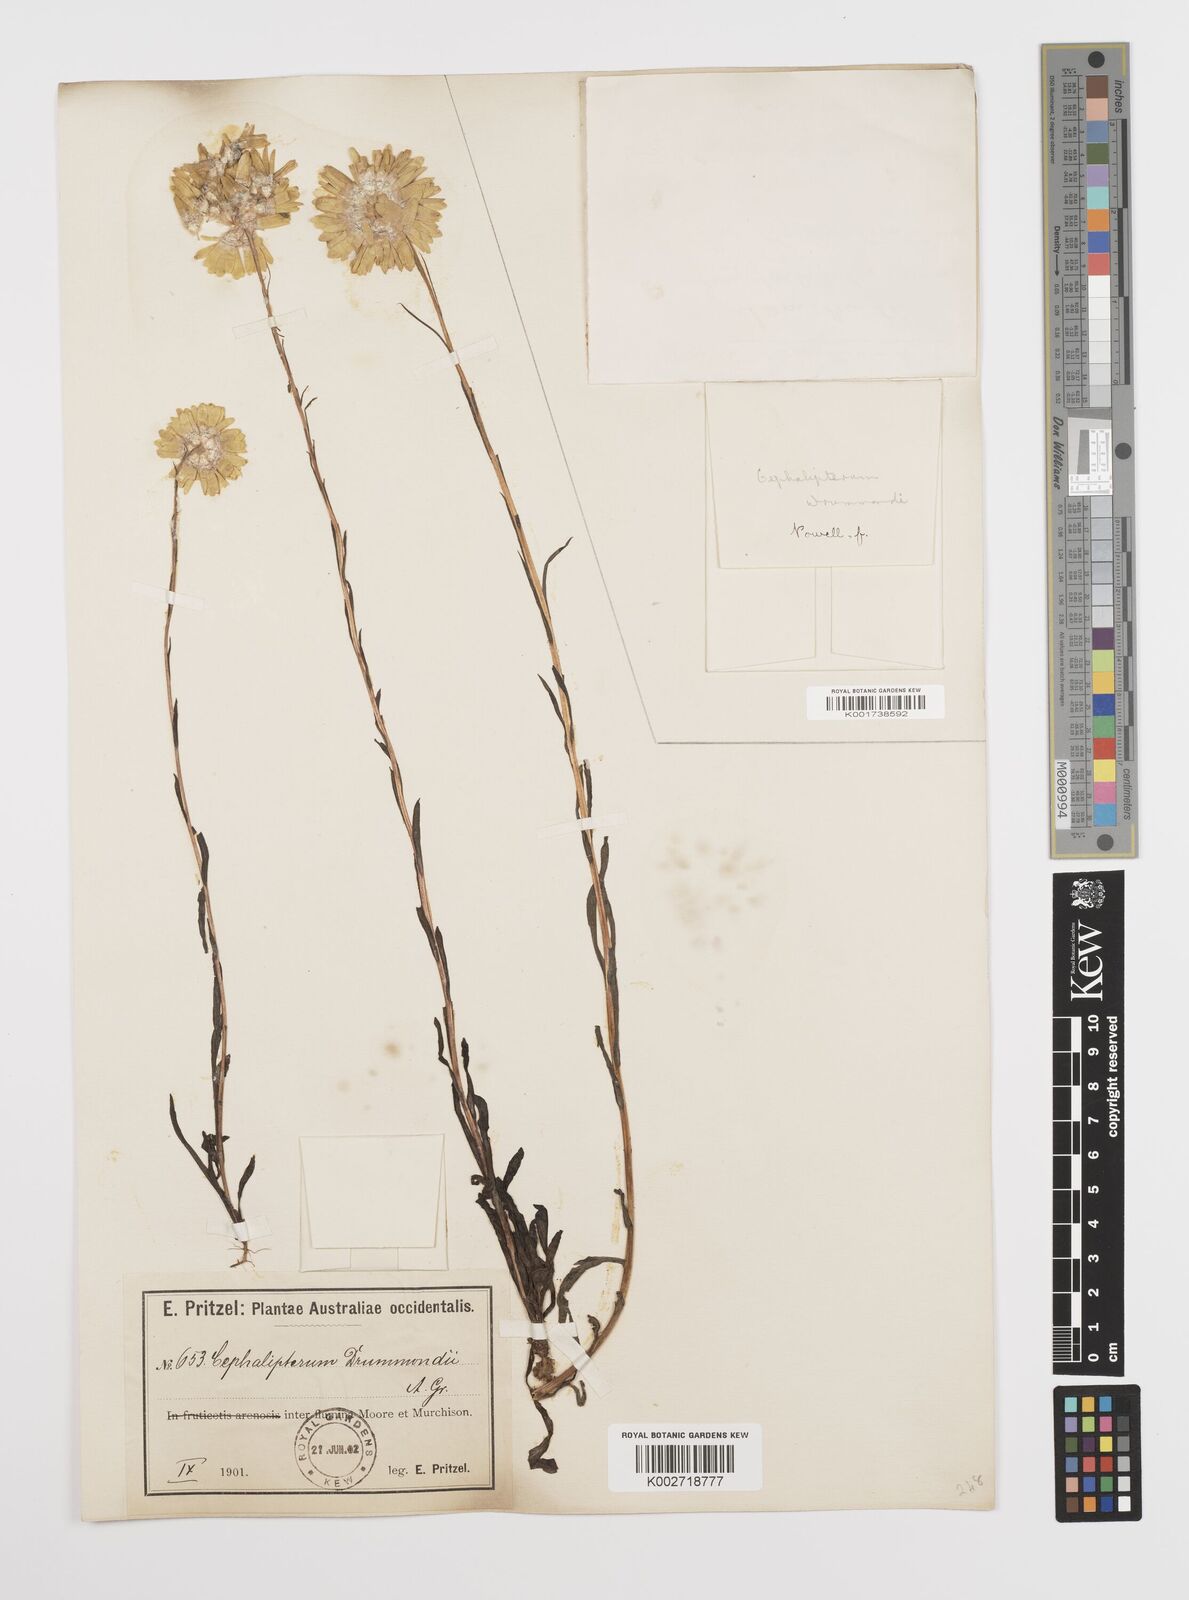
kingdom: Plantae
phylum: Tracheophyta
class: Magnoliopsida
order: Asterales
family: Asteraceae
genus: Cephalipterum
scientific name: Cephalipterum drummondii
